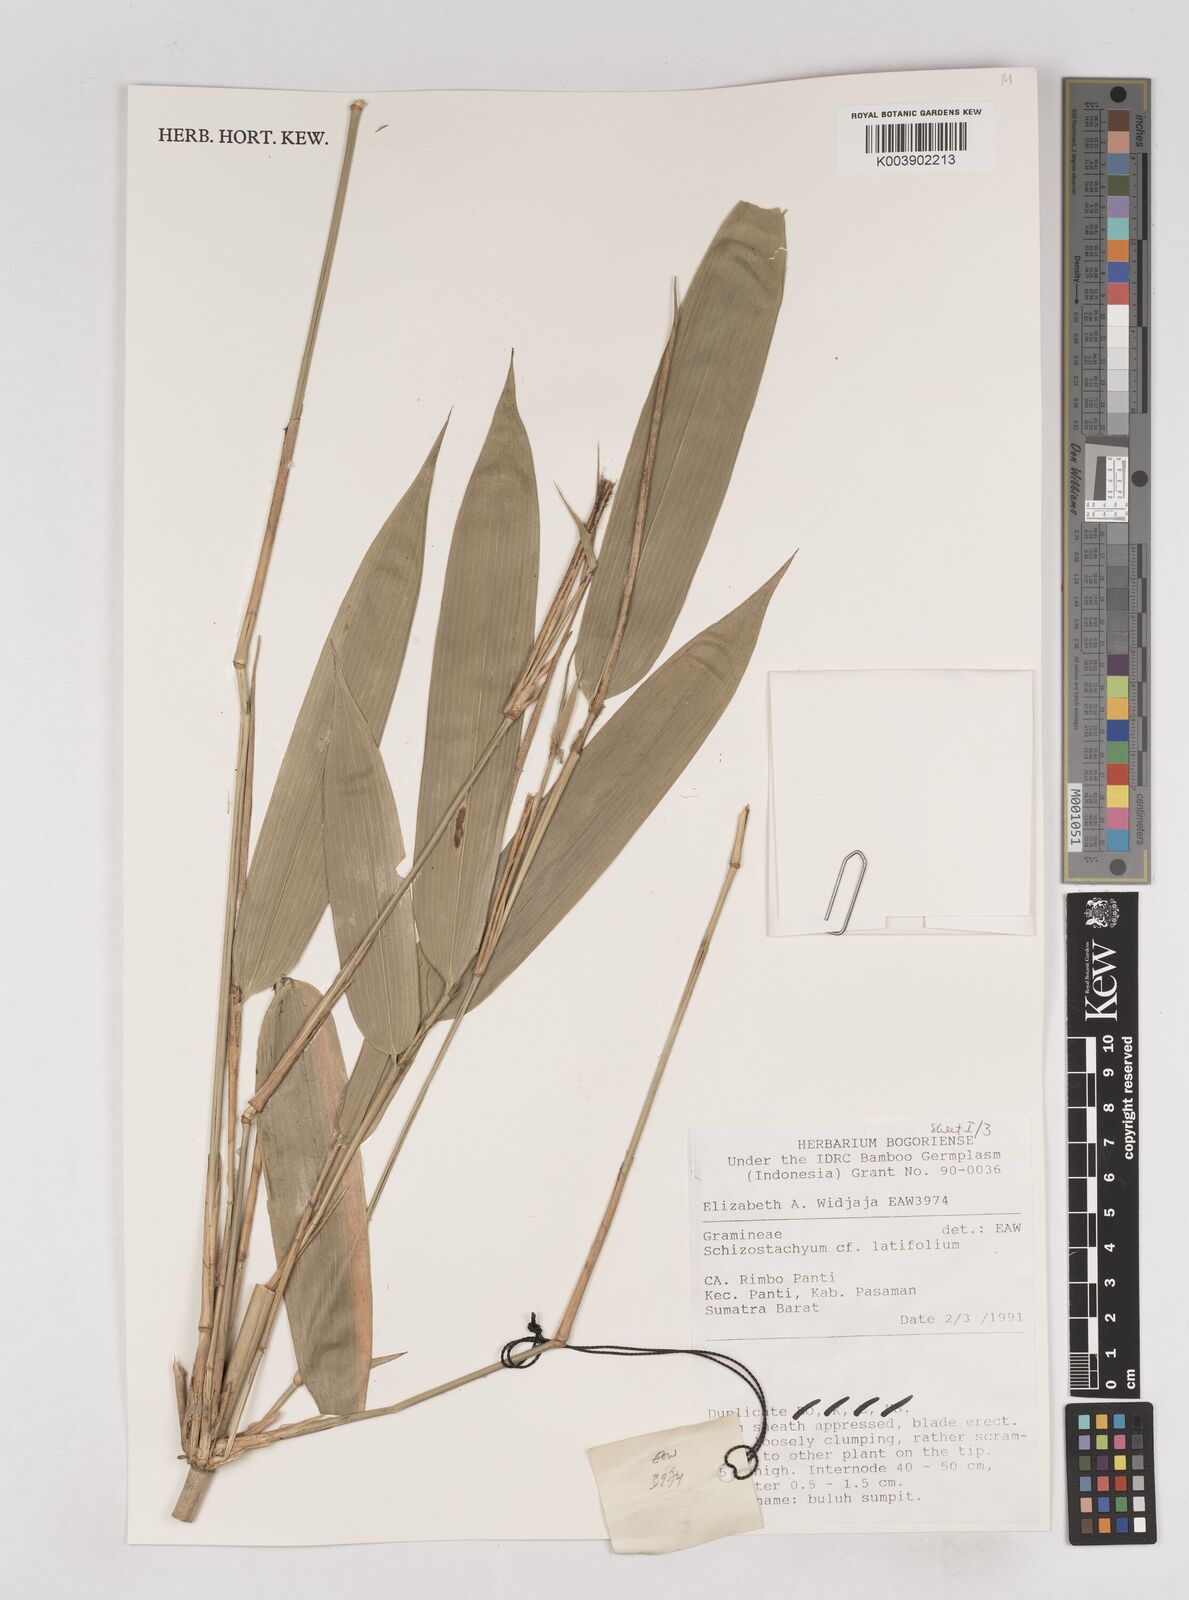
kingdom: Plantae
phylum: Tracheophyta
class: Liliopsida
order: Poales
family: Poaceae
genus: Schizostachyum
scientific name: Schizostachyum latifolium
